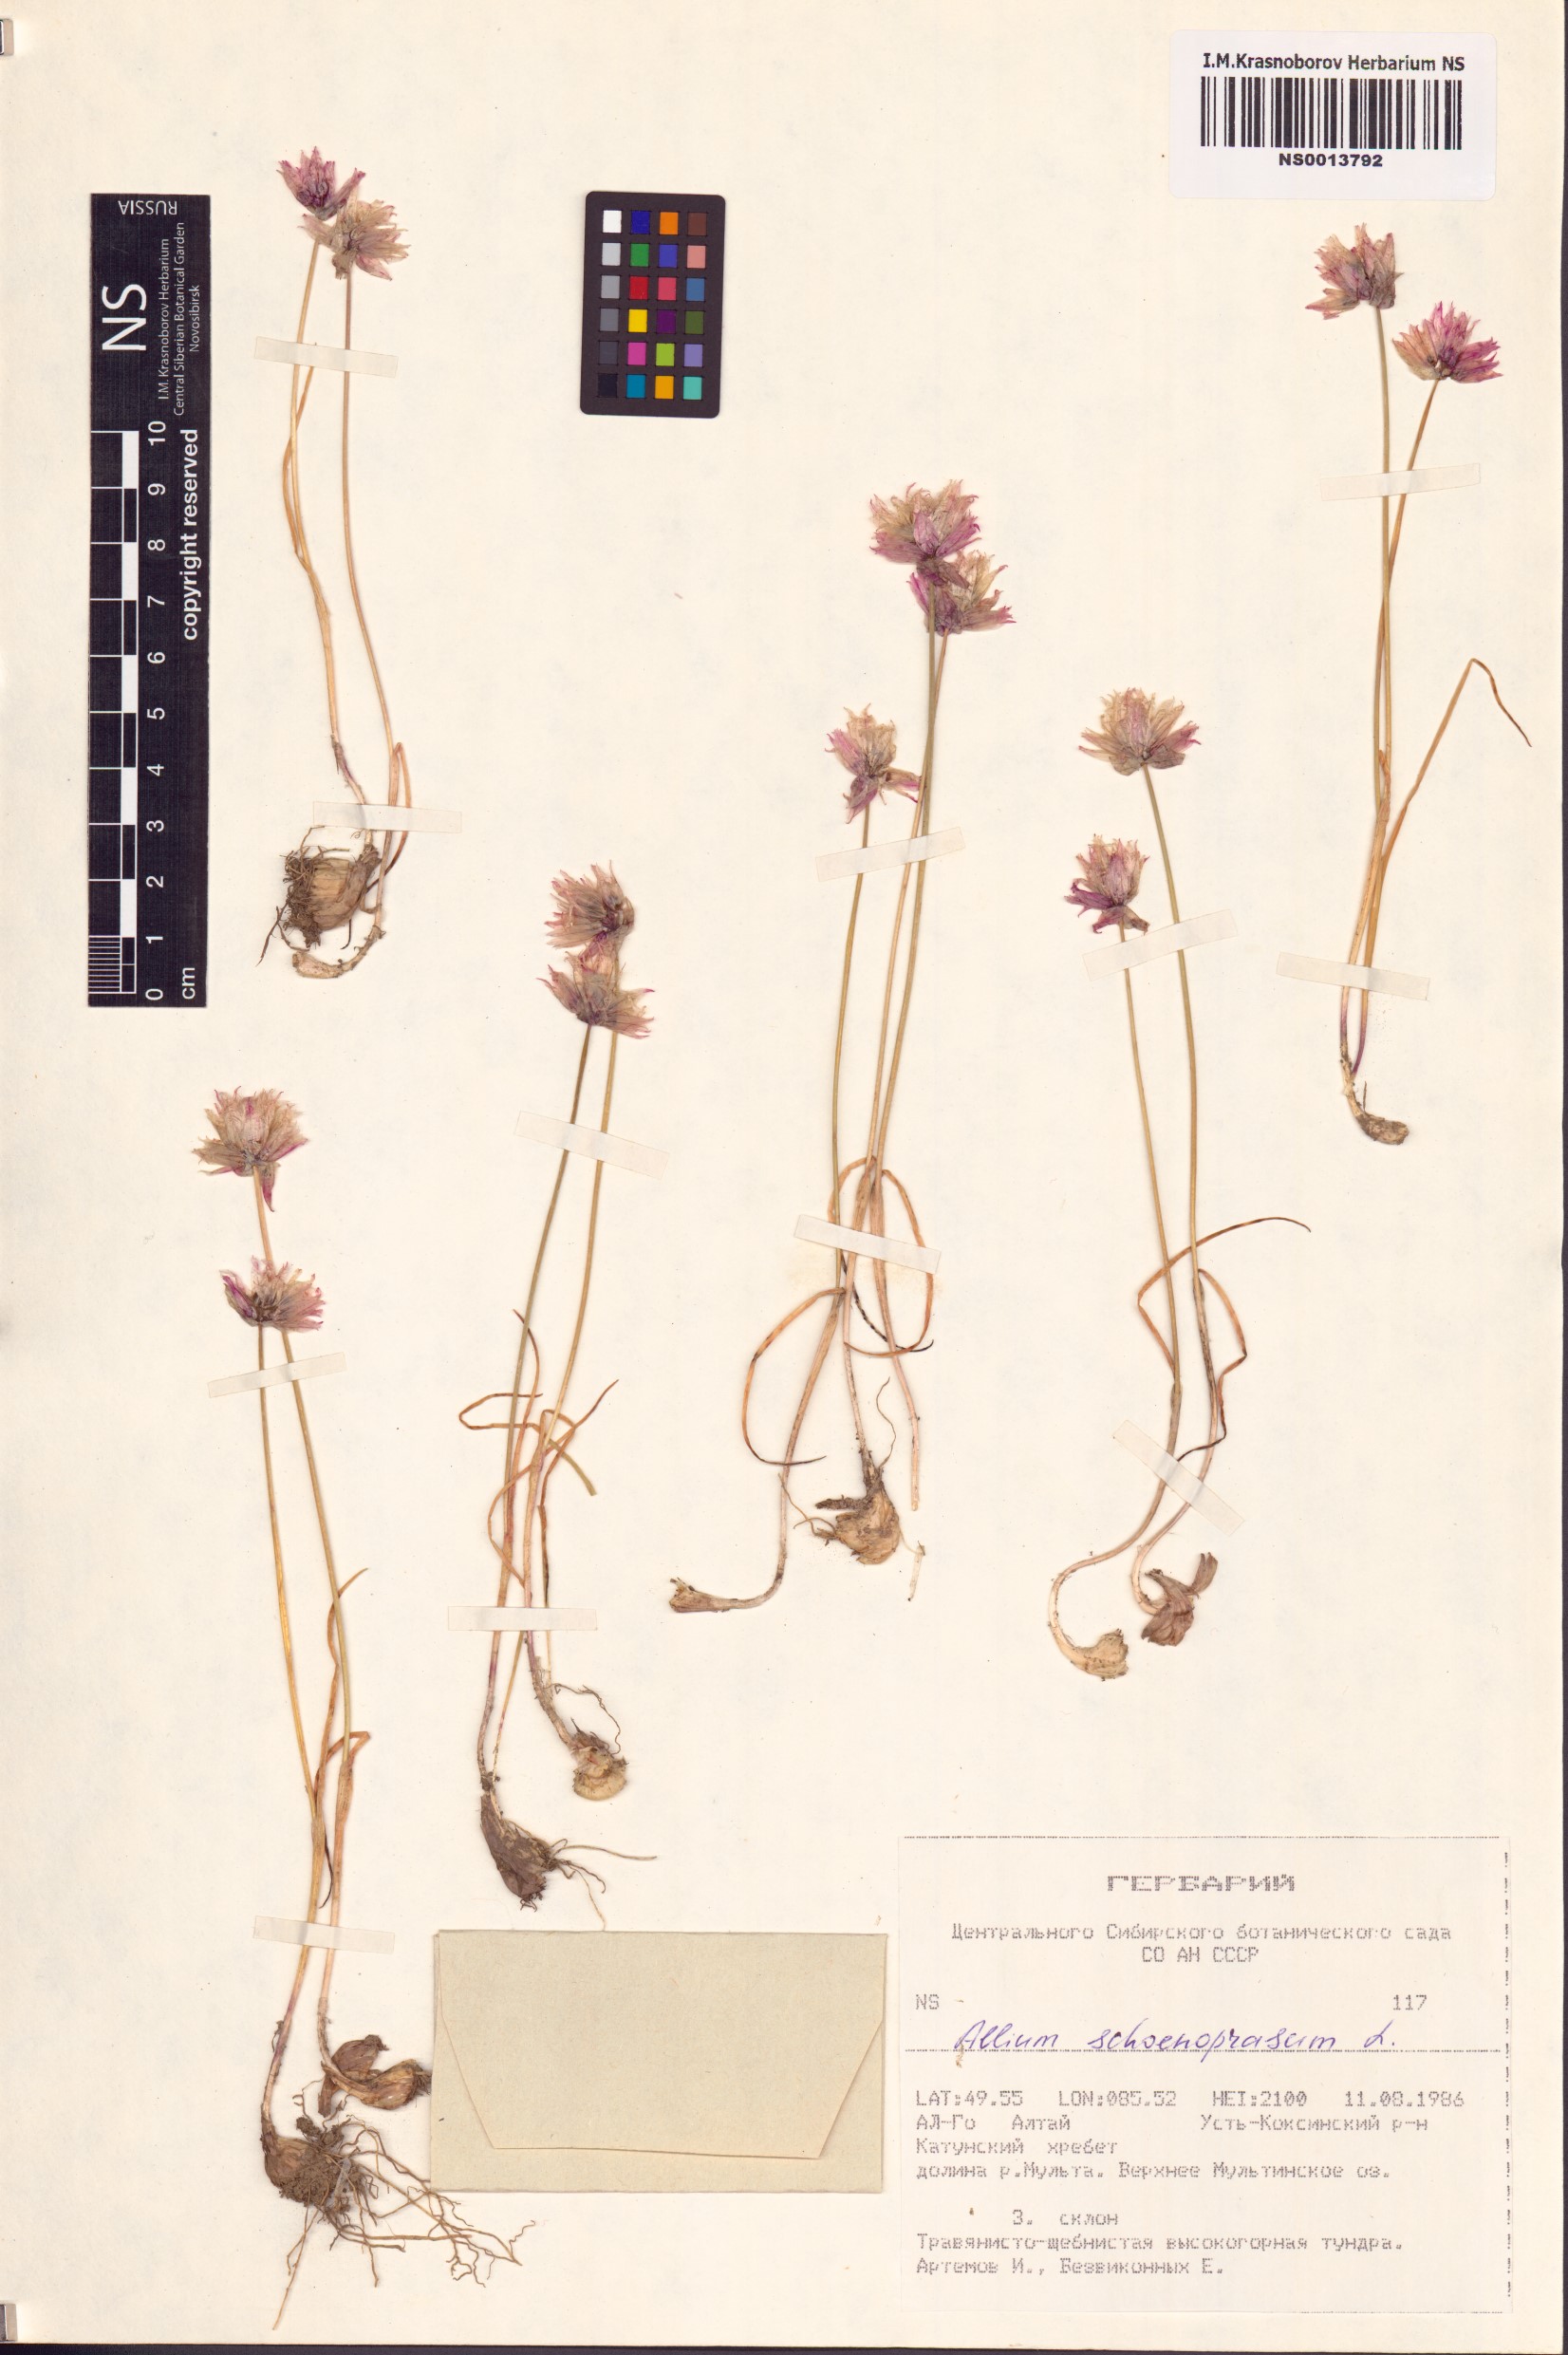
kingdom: Plantae
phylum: Tracheophyta
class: Liliopsida
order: Asparagales
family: Amaryllidaceae
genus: Allium
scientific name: Allium schoenoprasum
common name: Chives
